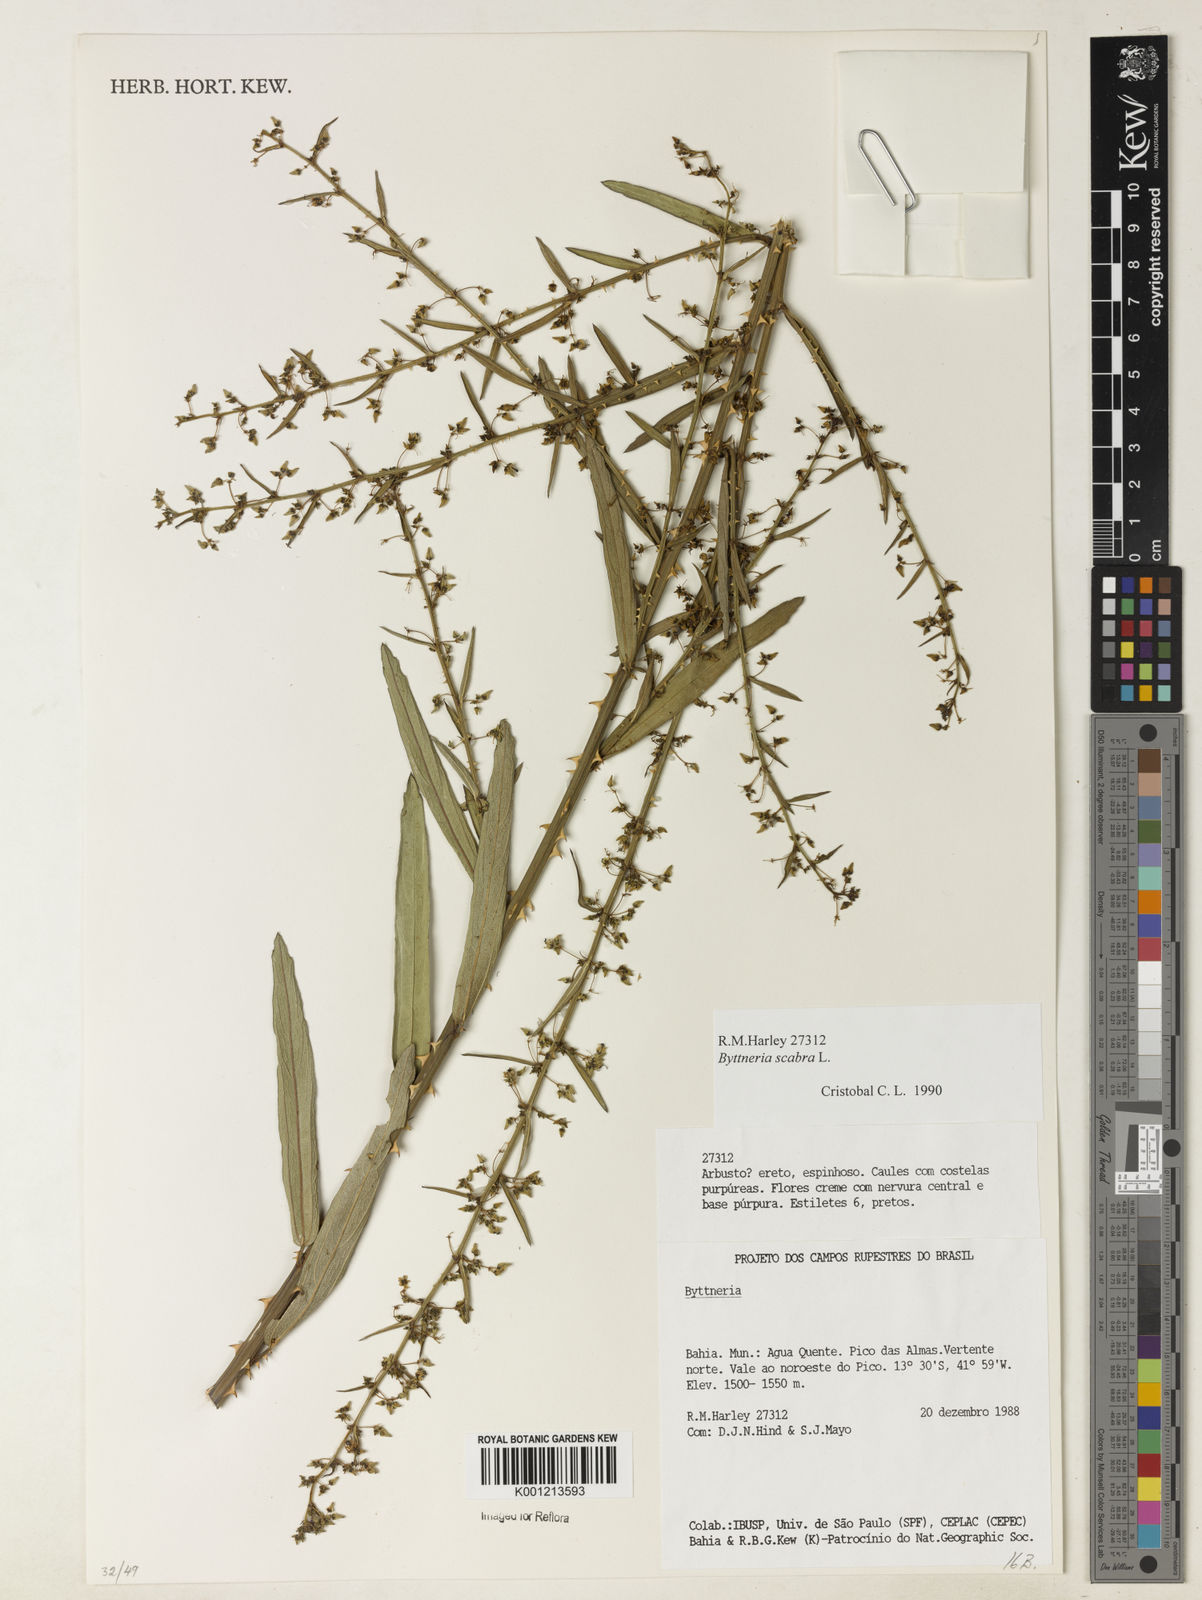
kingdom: Plantae
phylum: Tracheophyta
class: Magnoliopsida
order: Malvales
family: Malvaceae
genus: Byttneria
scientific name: Byttneria
